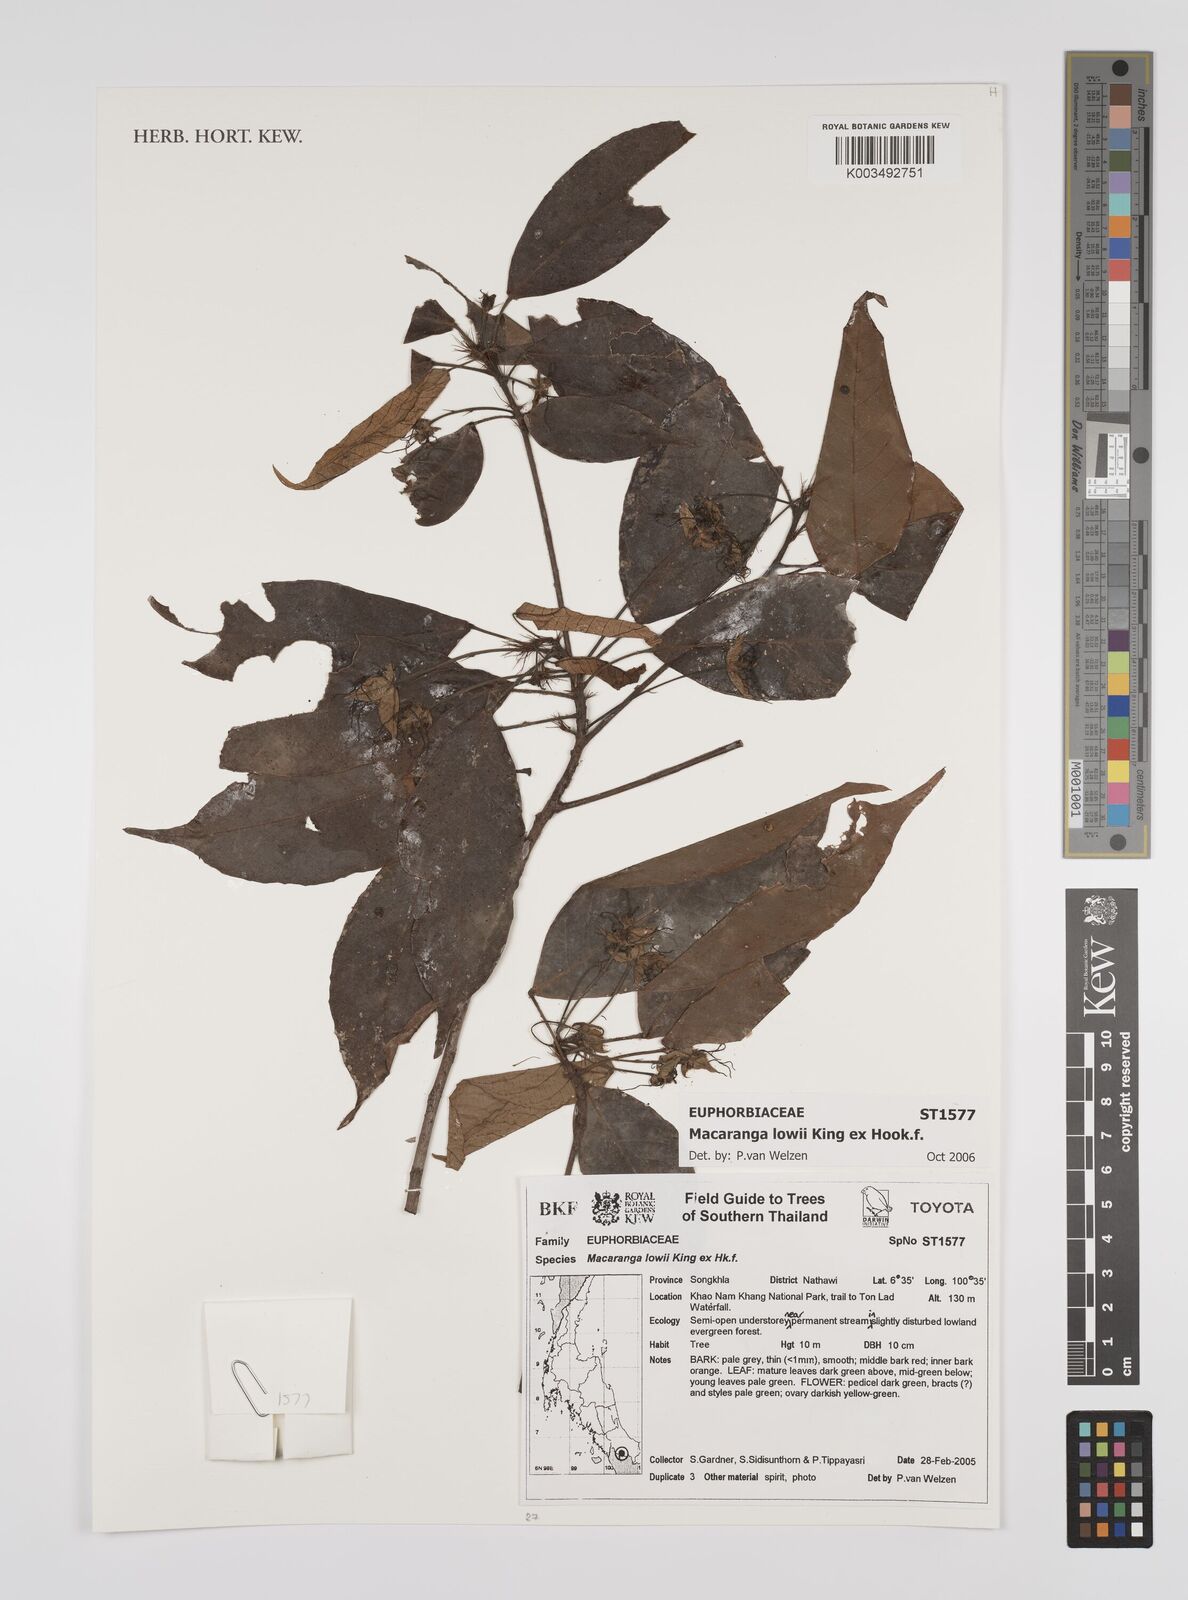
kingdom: Plantae
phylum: Tracheophyta
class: Magnoliopsida
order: Malpighiales
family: Euphorbiaceae
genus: Macaranga
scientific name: Macaranga lowii
